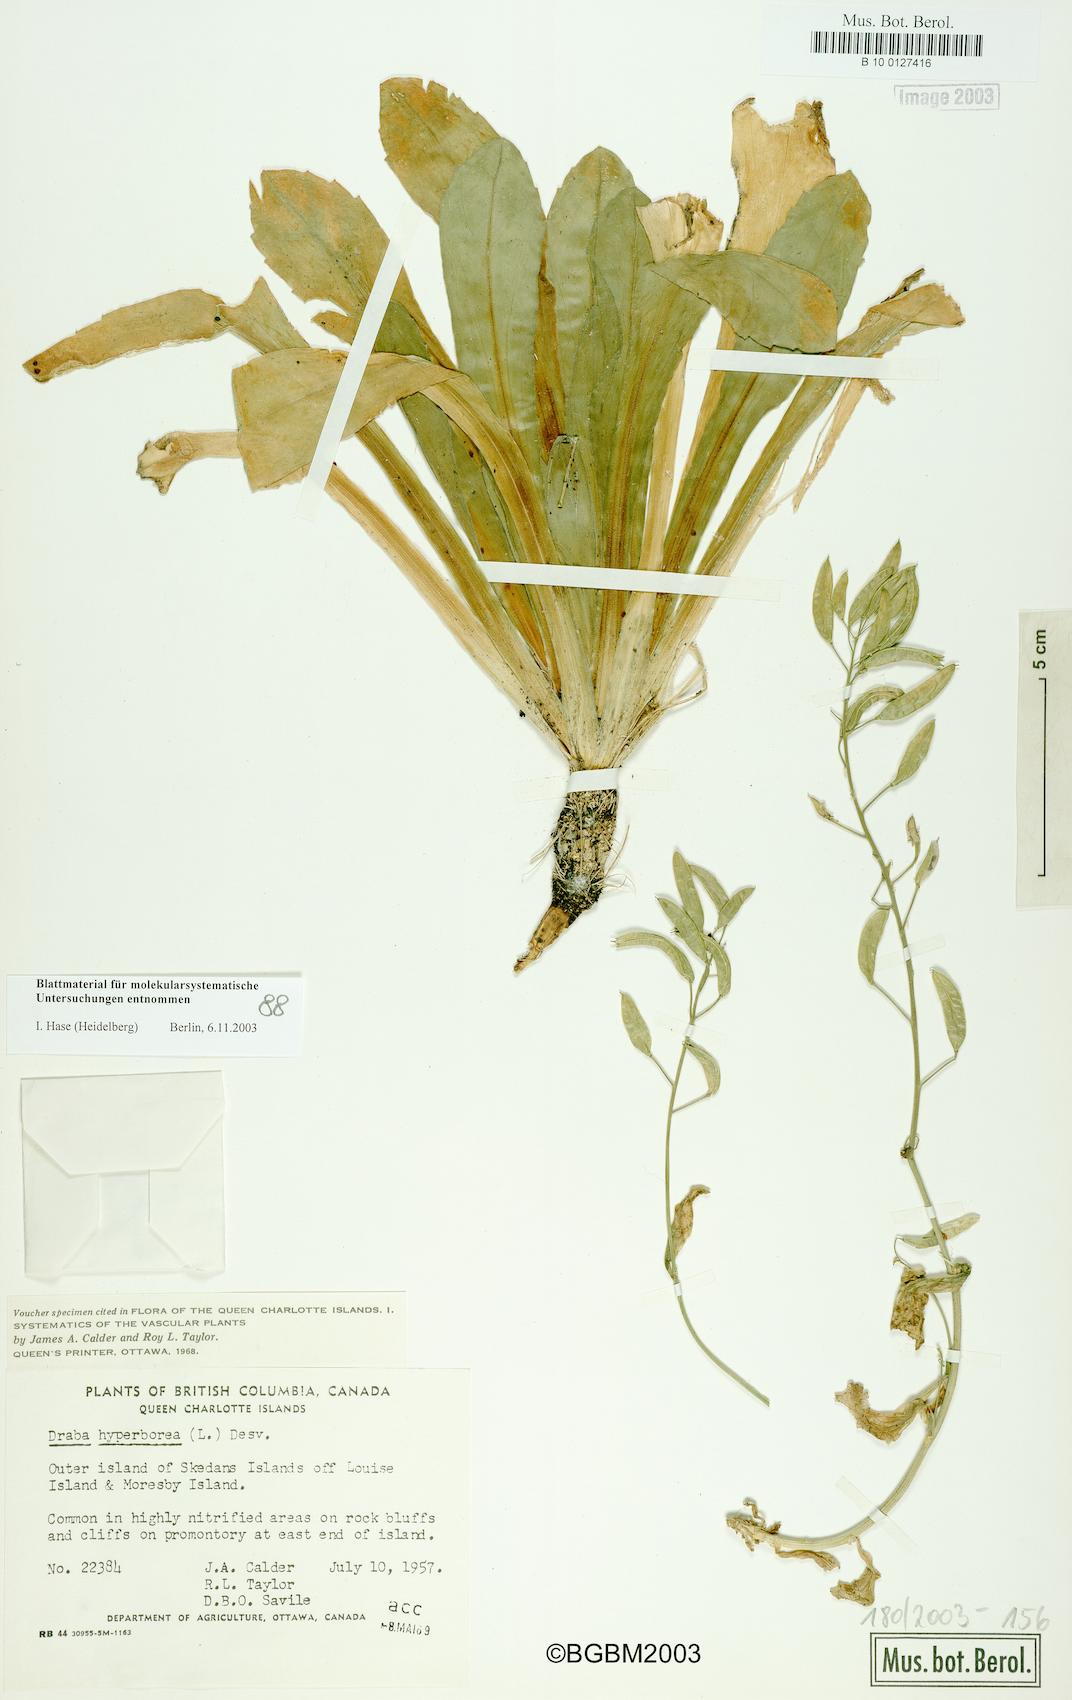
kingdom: Plantae
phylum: Tracheophyta
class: Magnoliopsida
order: Brassicales
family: Brassicaceae
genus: Draba
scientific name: Draba hyperborea
